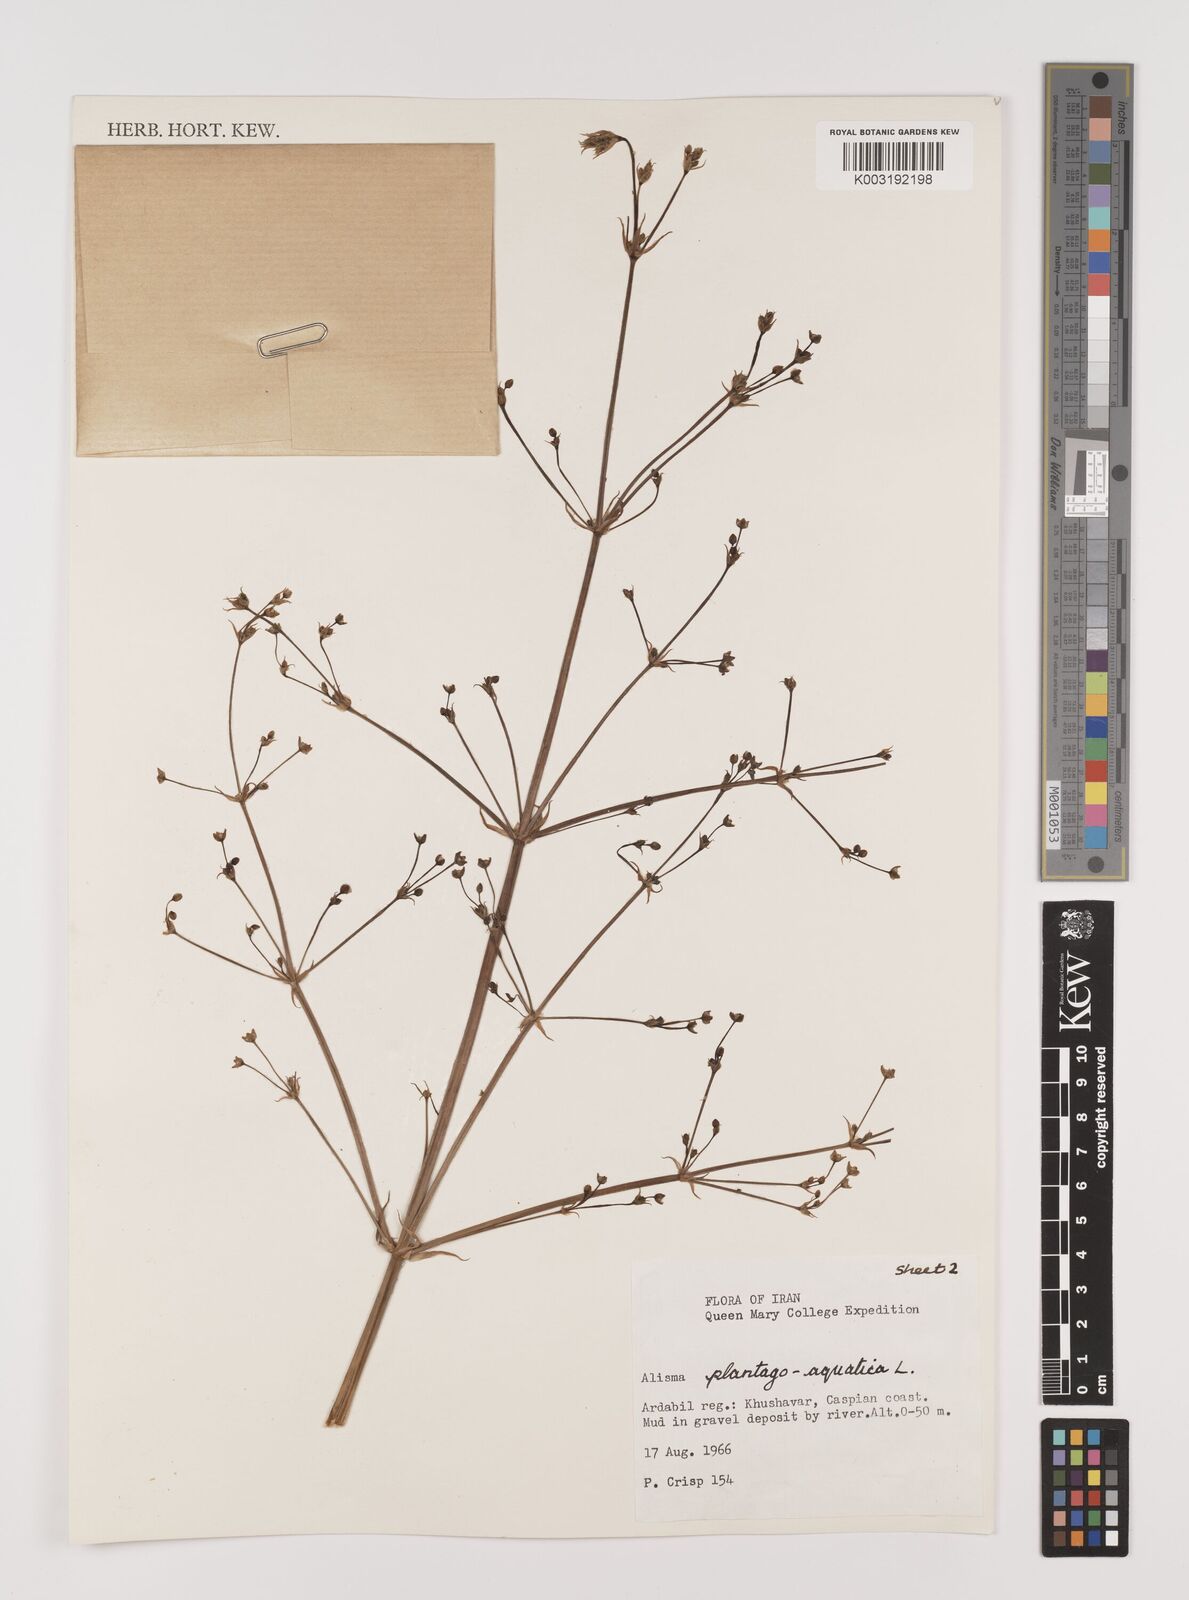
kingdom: Plantae
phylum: Tracheophyta
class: Liliopsida
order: Alismatales
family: Alismataceae
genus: Alisma
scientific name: Alisma plantago-aquatica
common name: Water-plantain
